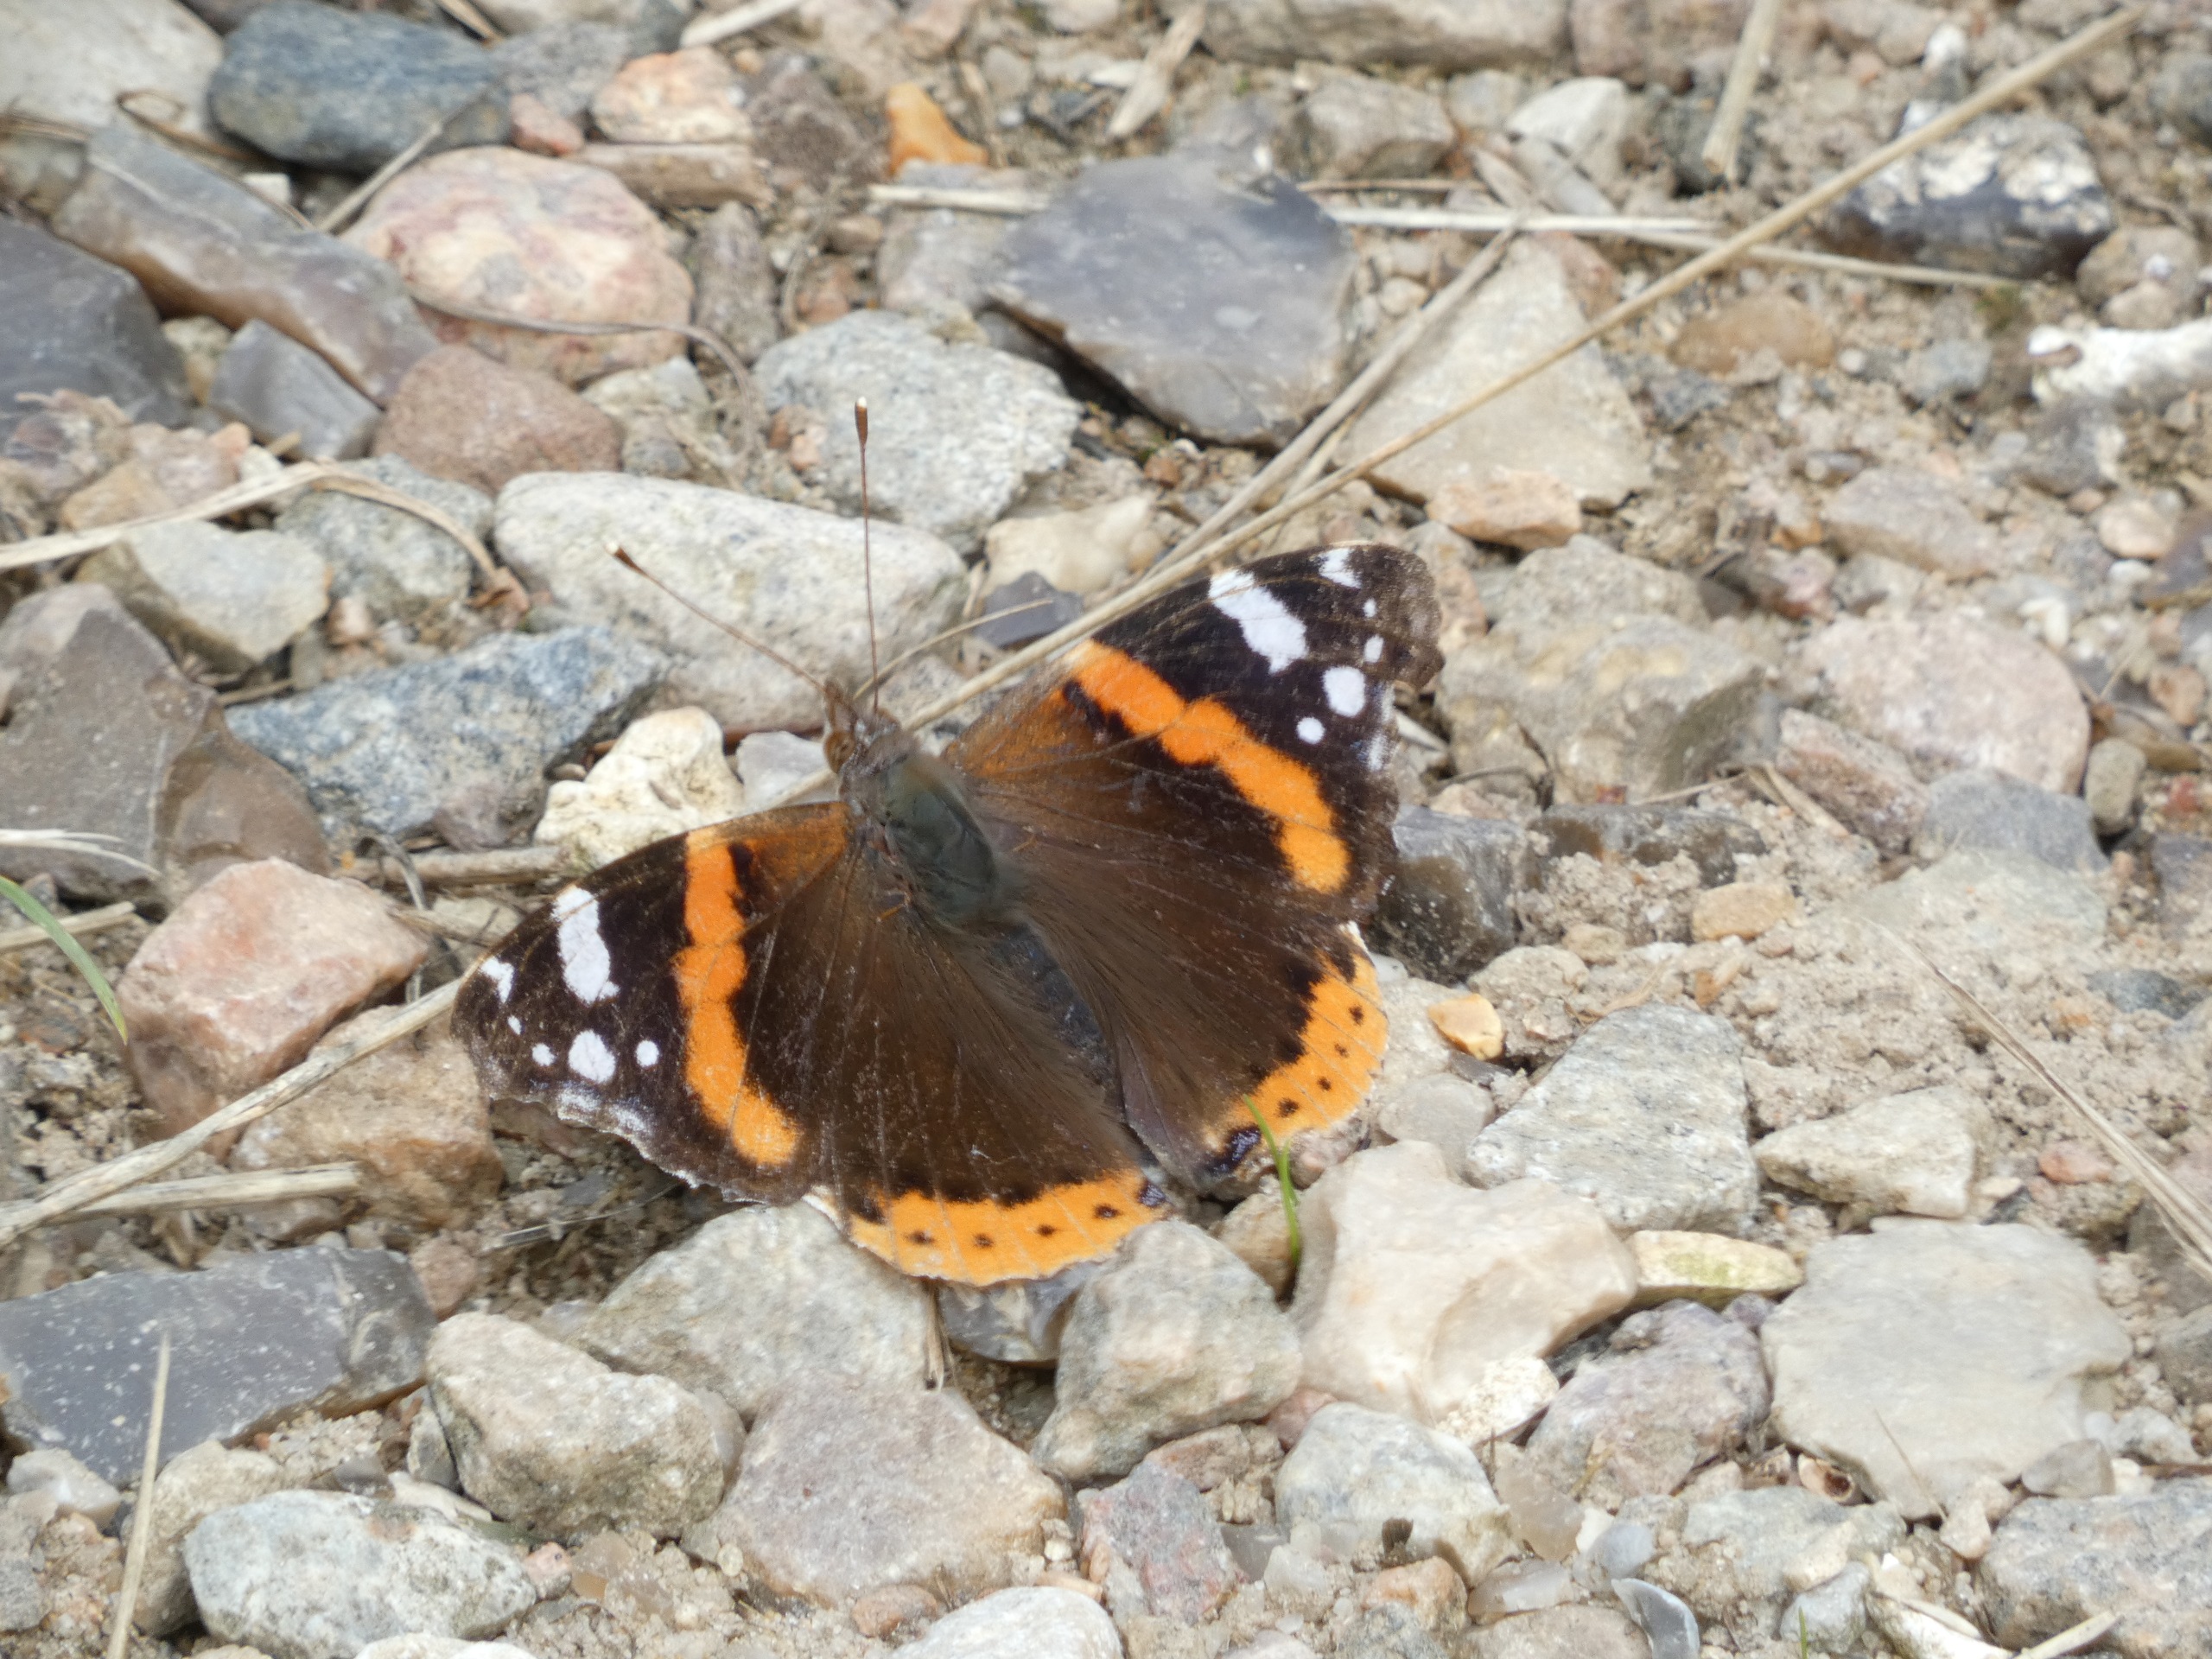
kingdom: Animalia
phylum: Arthropoda
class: Insecta
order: Lepidoptera
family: Nymphalidae
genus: Vanessa
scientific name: Vanessa atalanta
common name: Admiral
